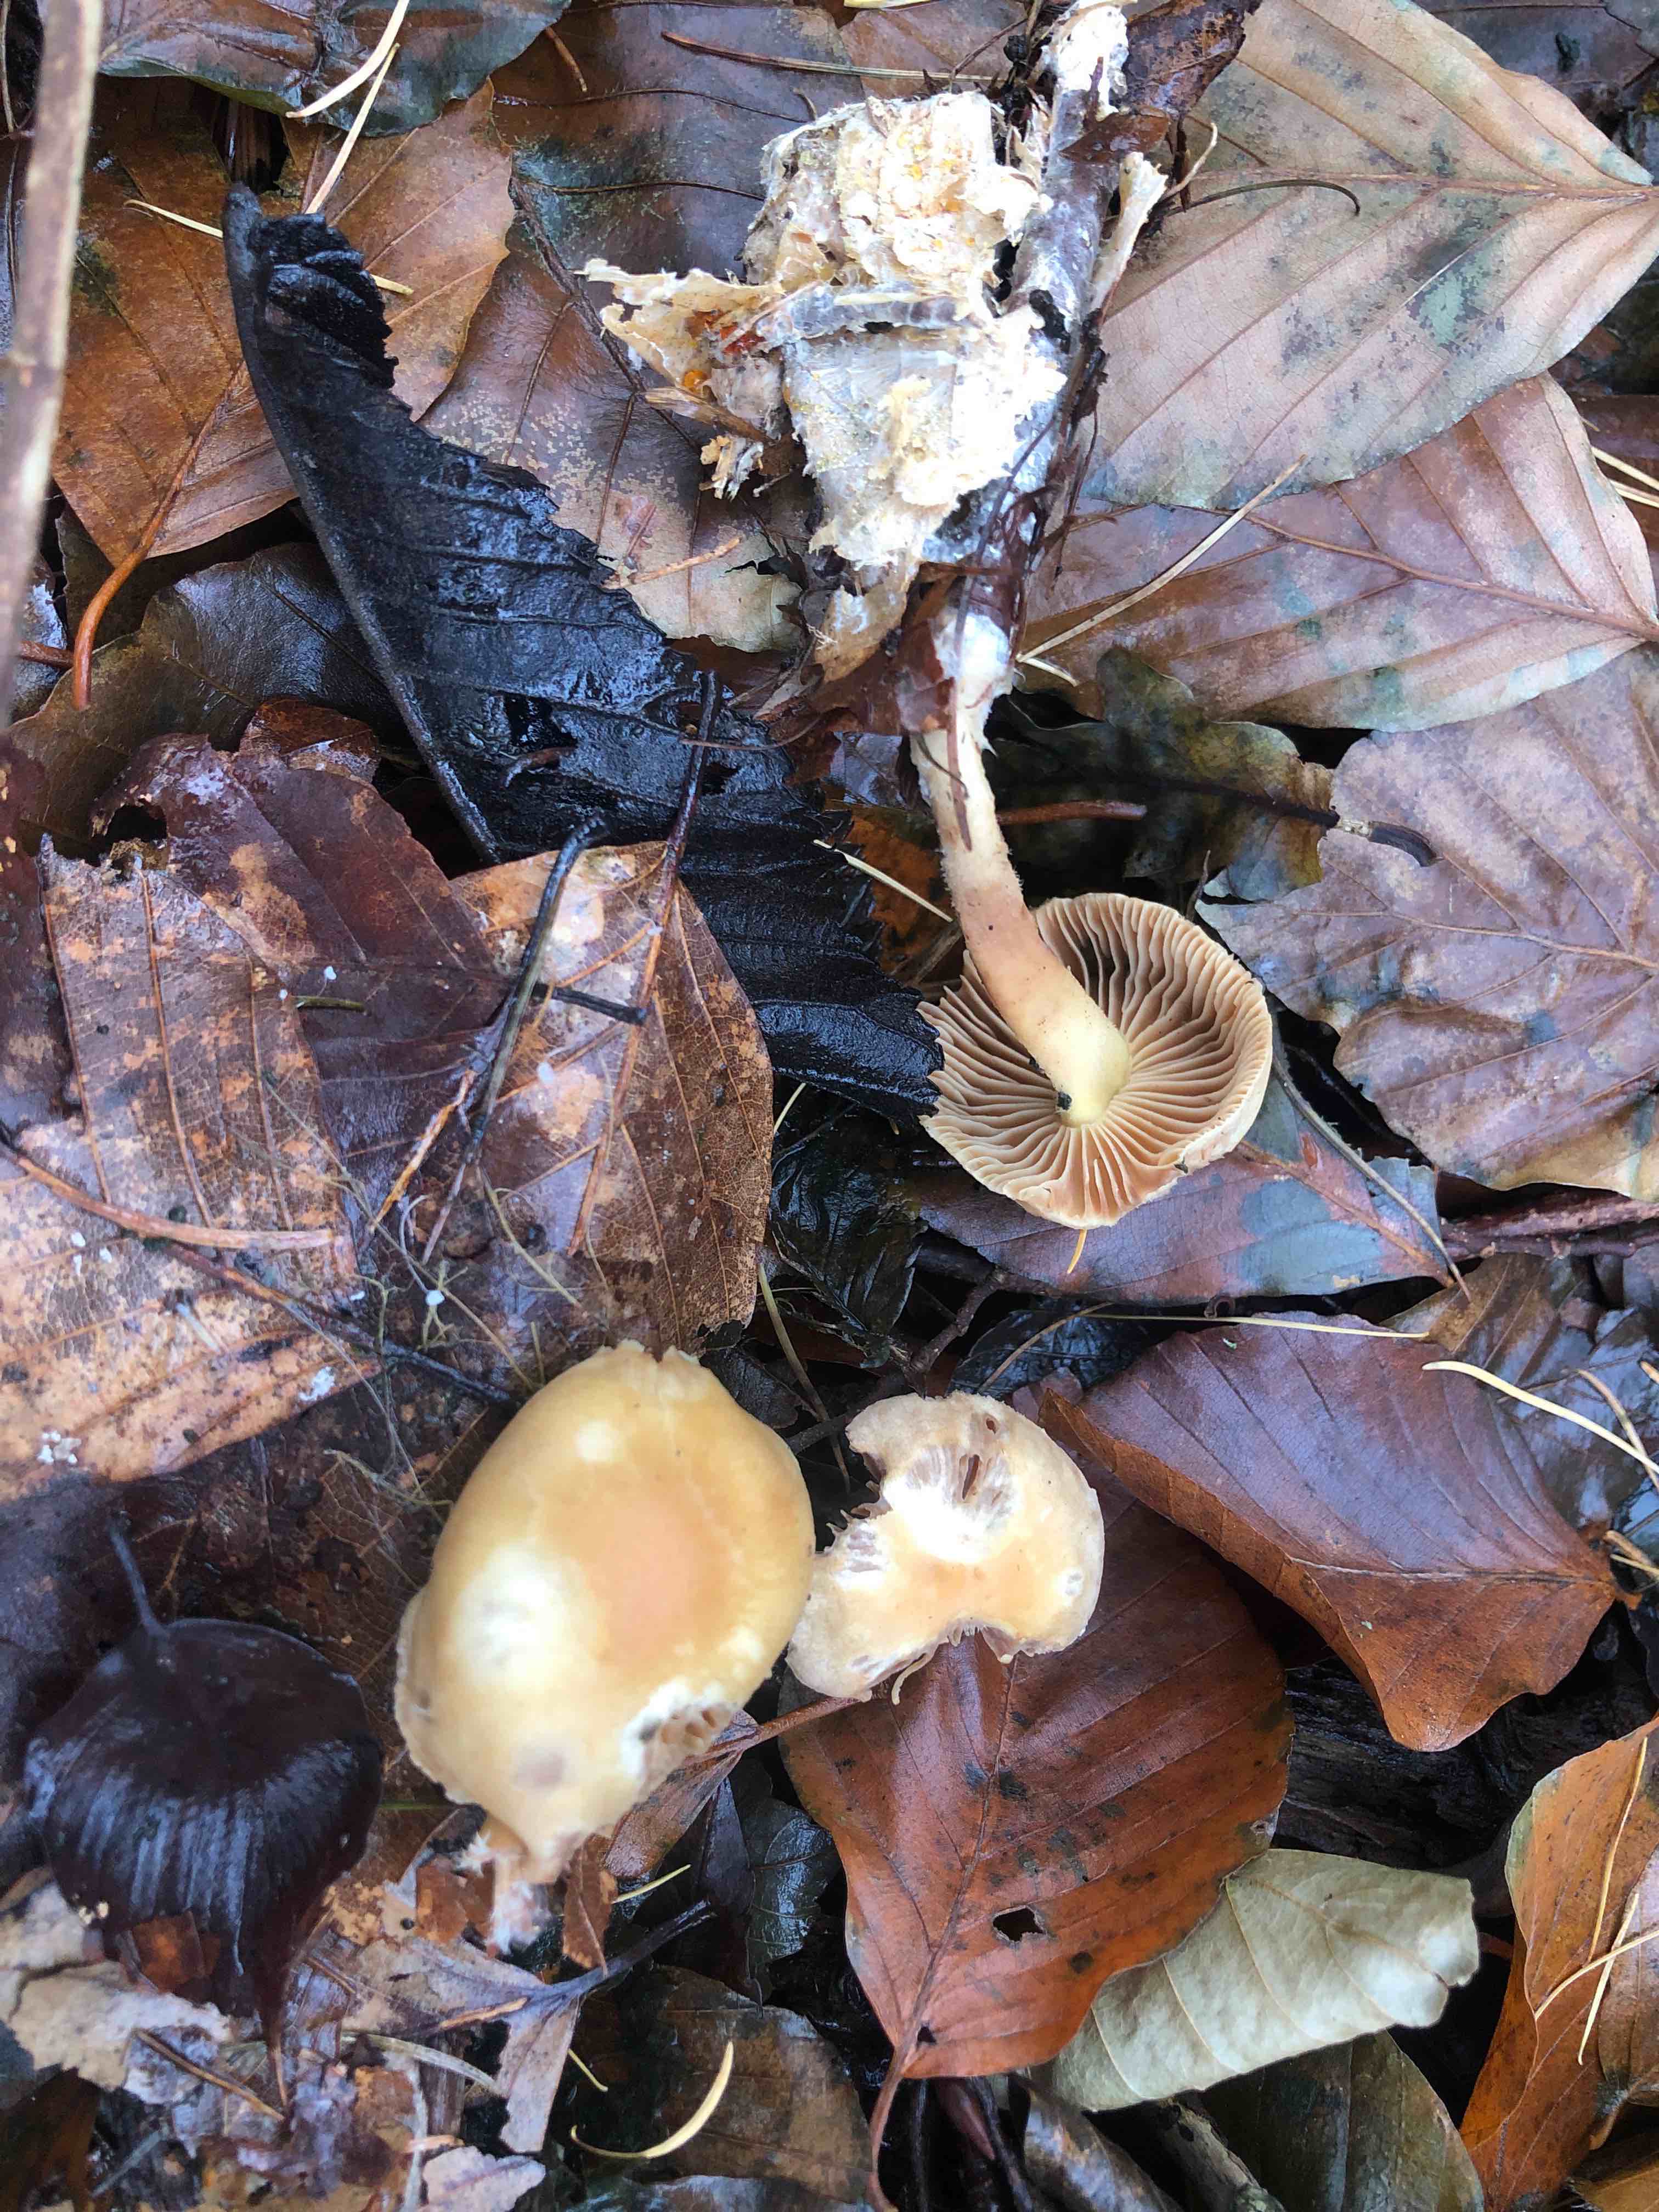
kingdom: Fungi
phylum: Basidiomycota
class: Agaricomycetes
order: Agaricales
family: Omphalotaceae
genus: Collybiopsis
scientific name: Collybiopsis peronata
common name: bestøvlet fladhat
